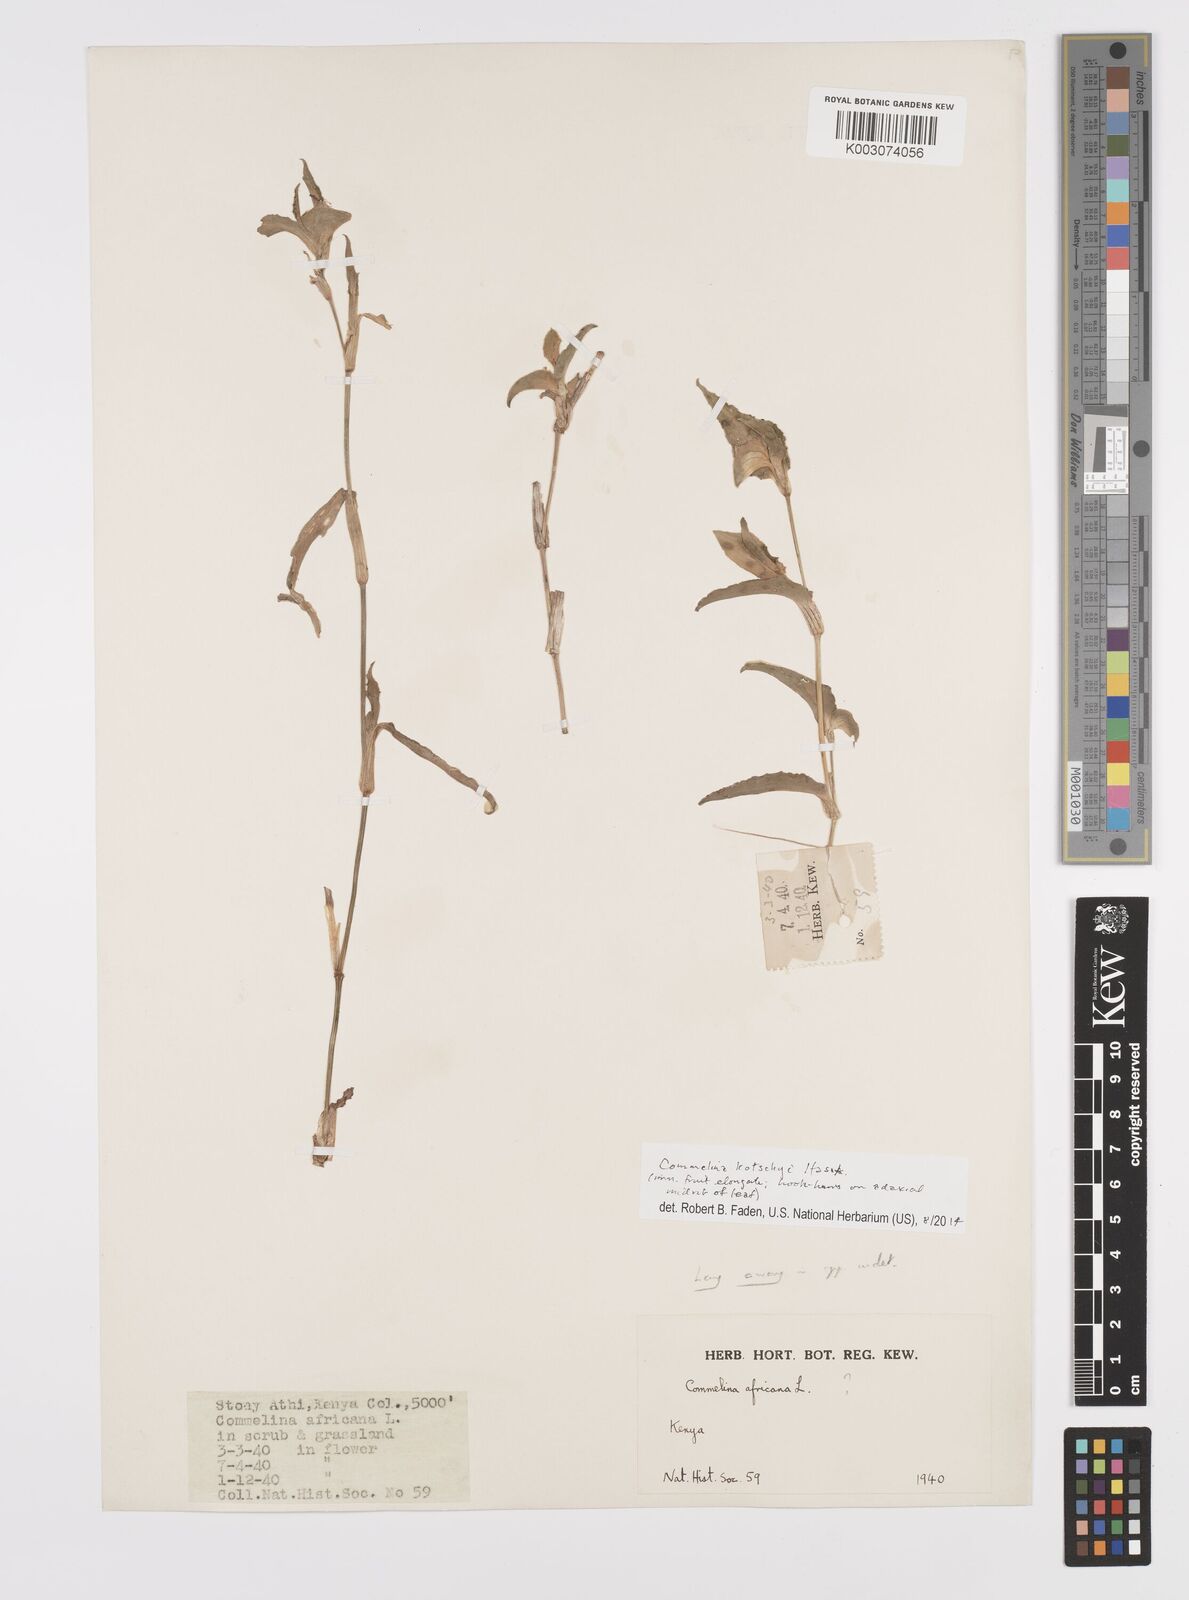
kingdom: Plantae
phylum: Tracheophyta
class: Liliopsida
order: Commelinales
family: Commelinaceae
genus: Commelina
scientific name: Commelina kotschyi
